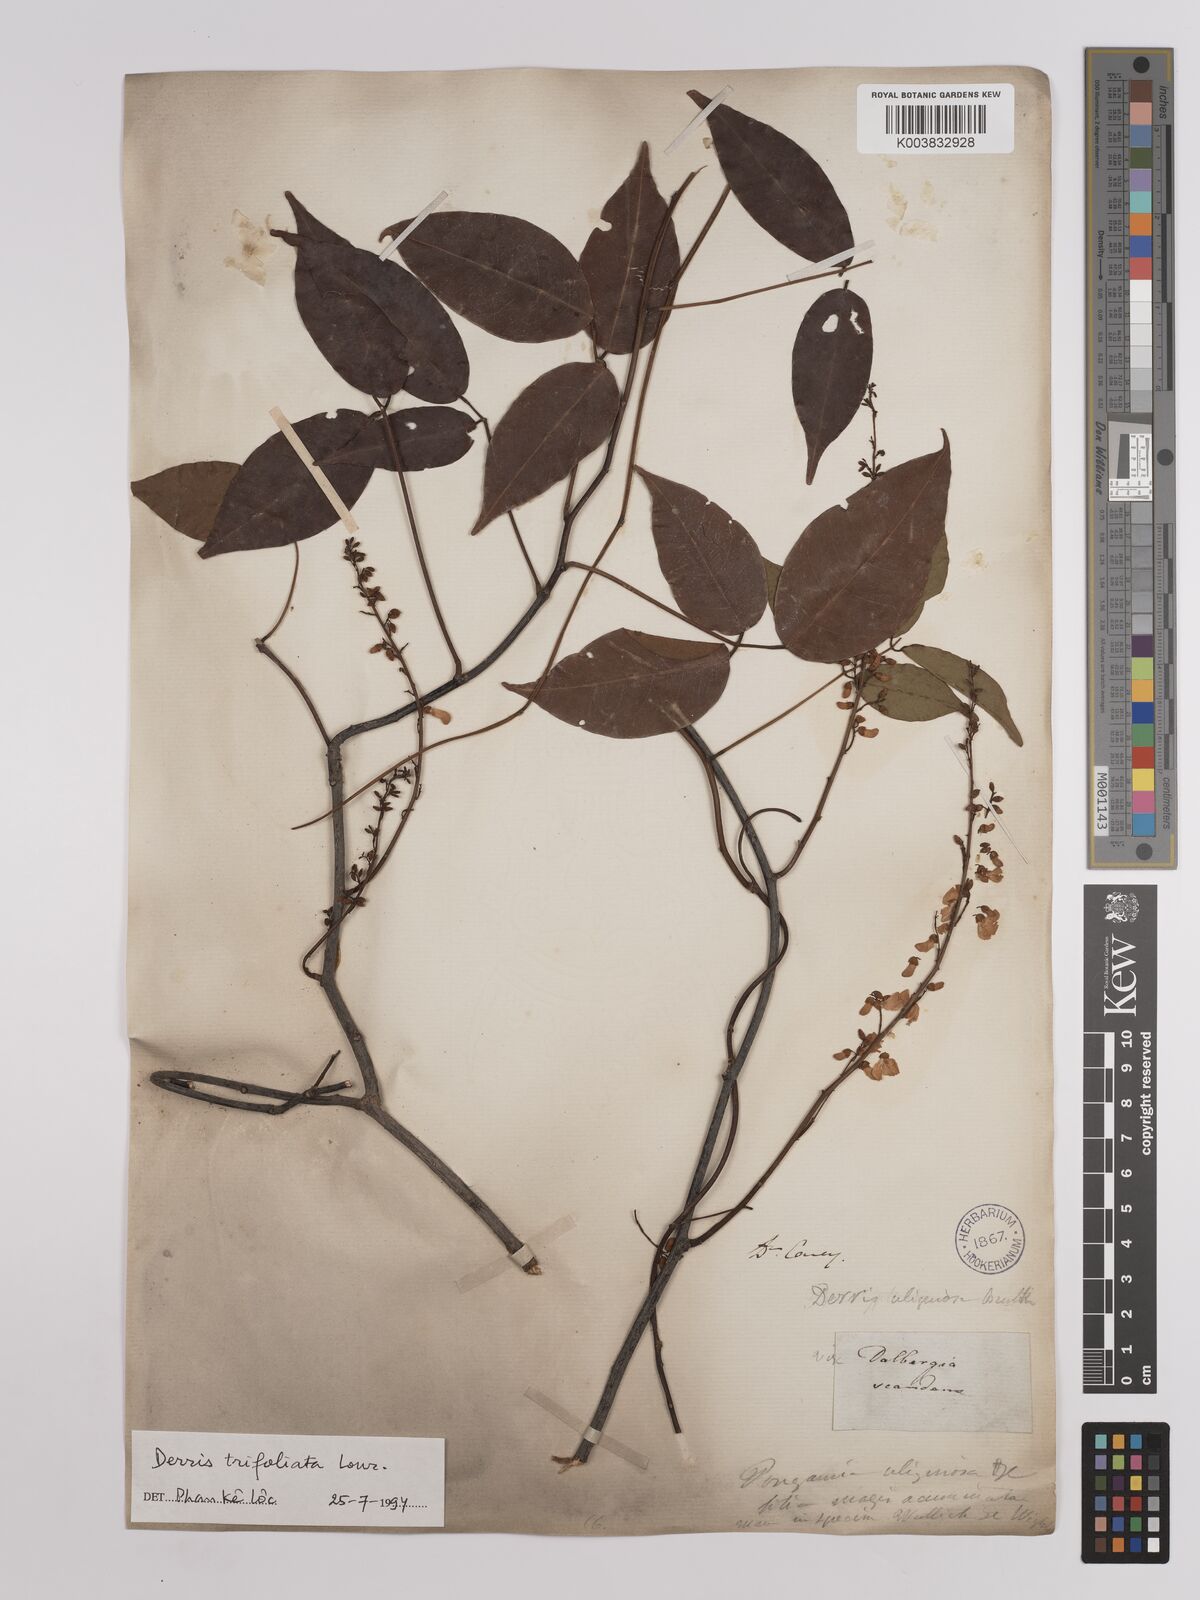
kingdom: Plantae
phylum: Tracheophyta
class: Magnoliopsida
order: Fabales
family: Fabaceae
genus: Derris
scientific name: Derris trifoliata
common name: Three-leaf derris
